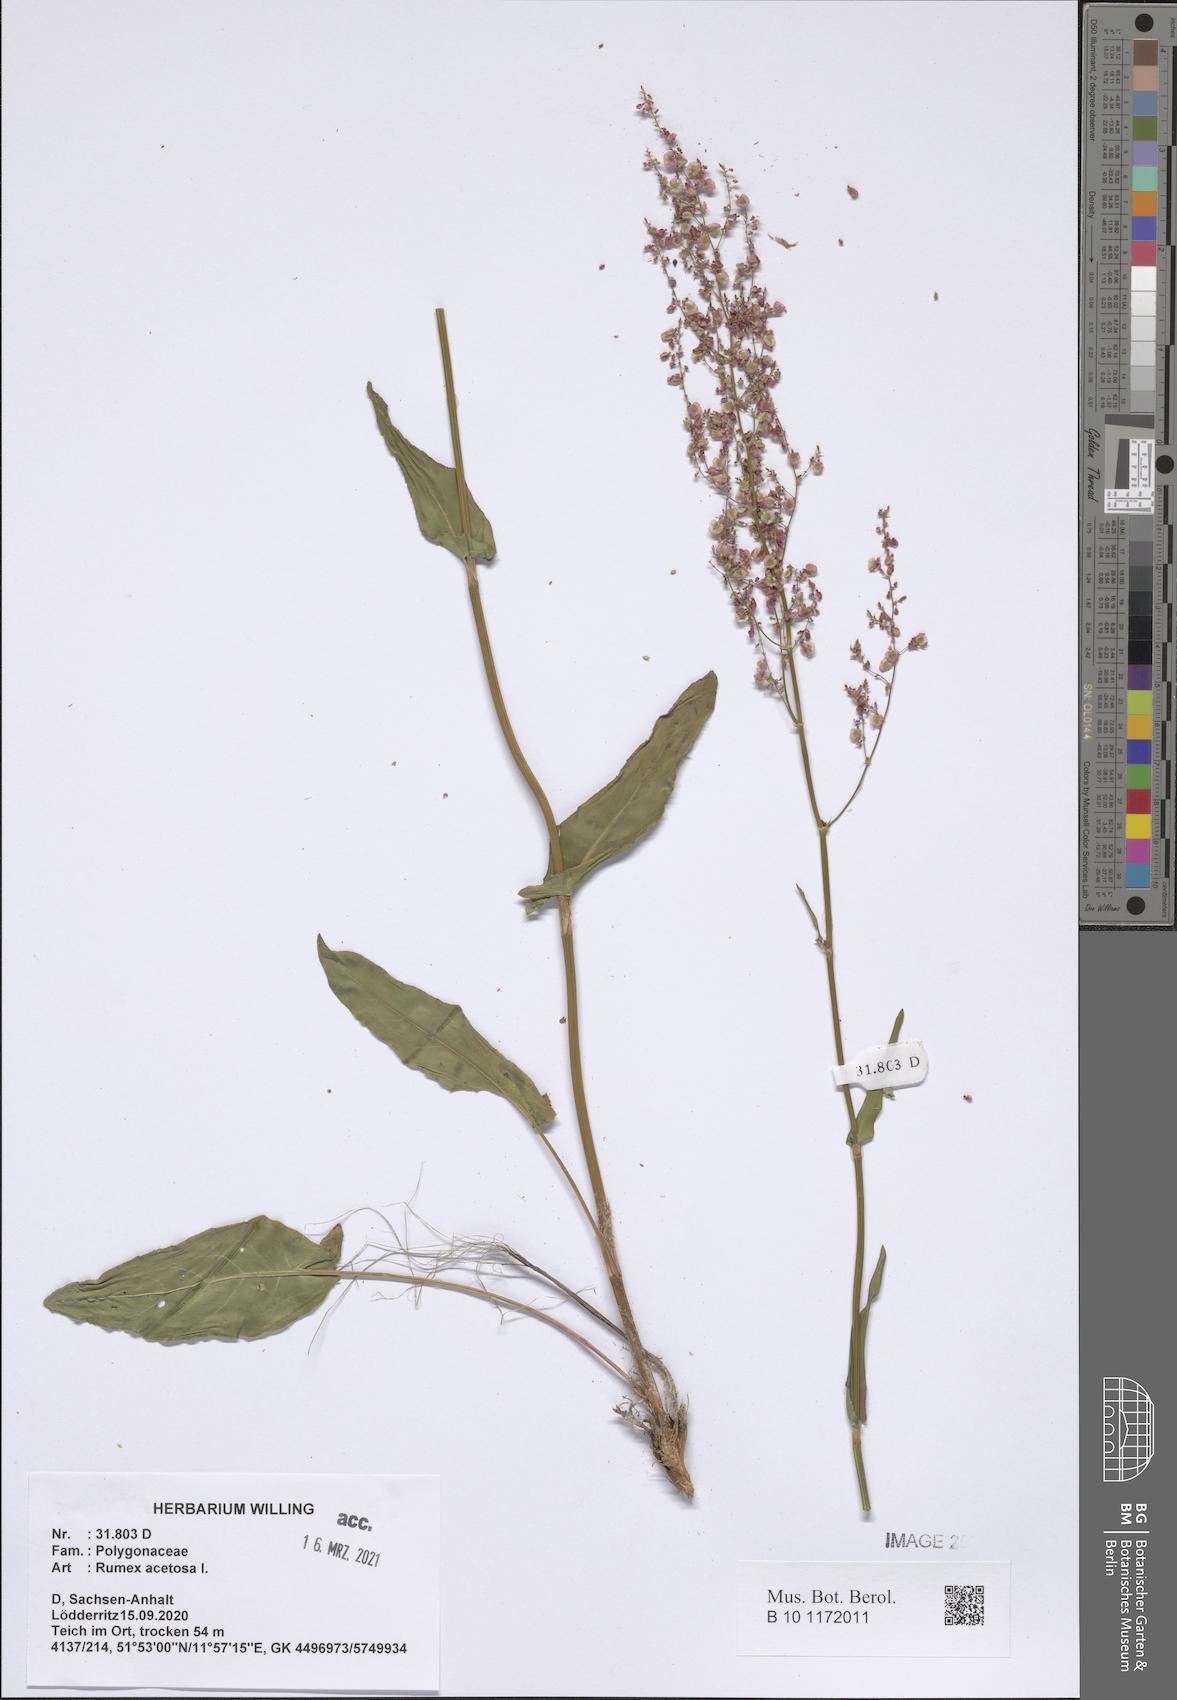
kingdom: Plantae
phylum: Tracheophyta
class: Magnoliopsida
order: Caryophyllales
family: Polygonaceae
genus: Rumex
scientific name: Rumex acetosa
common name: Garden sorrel
